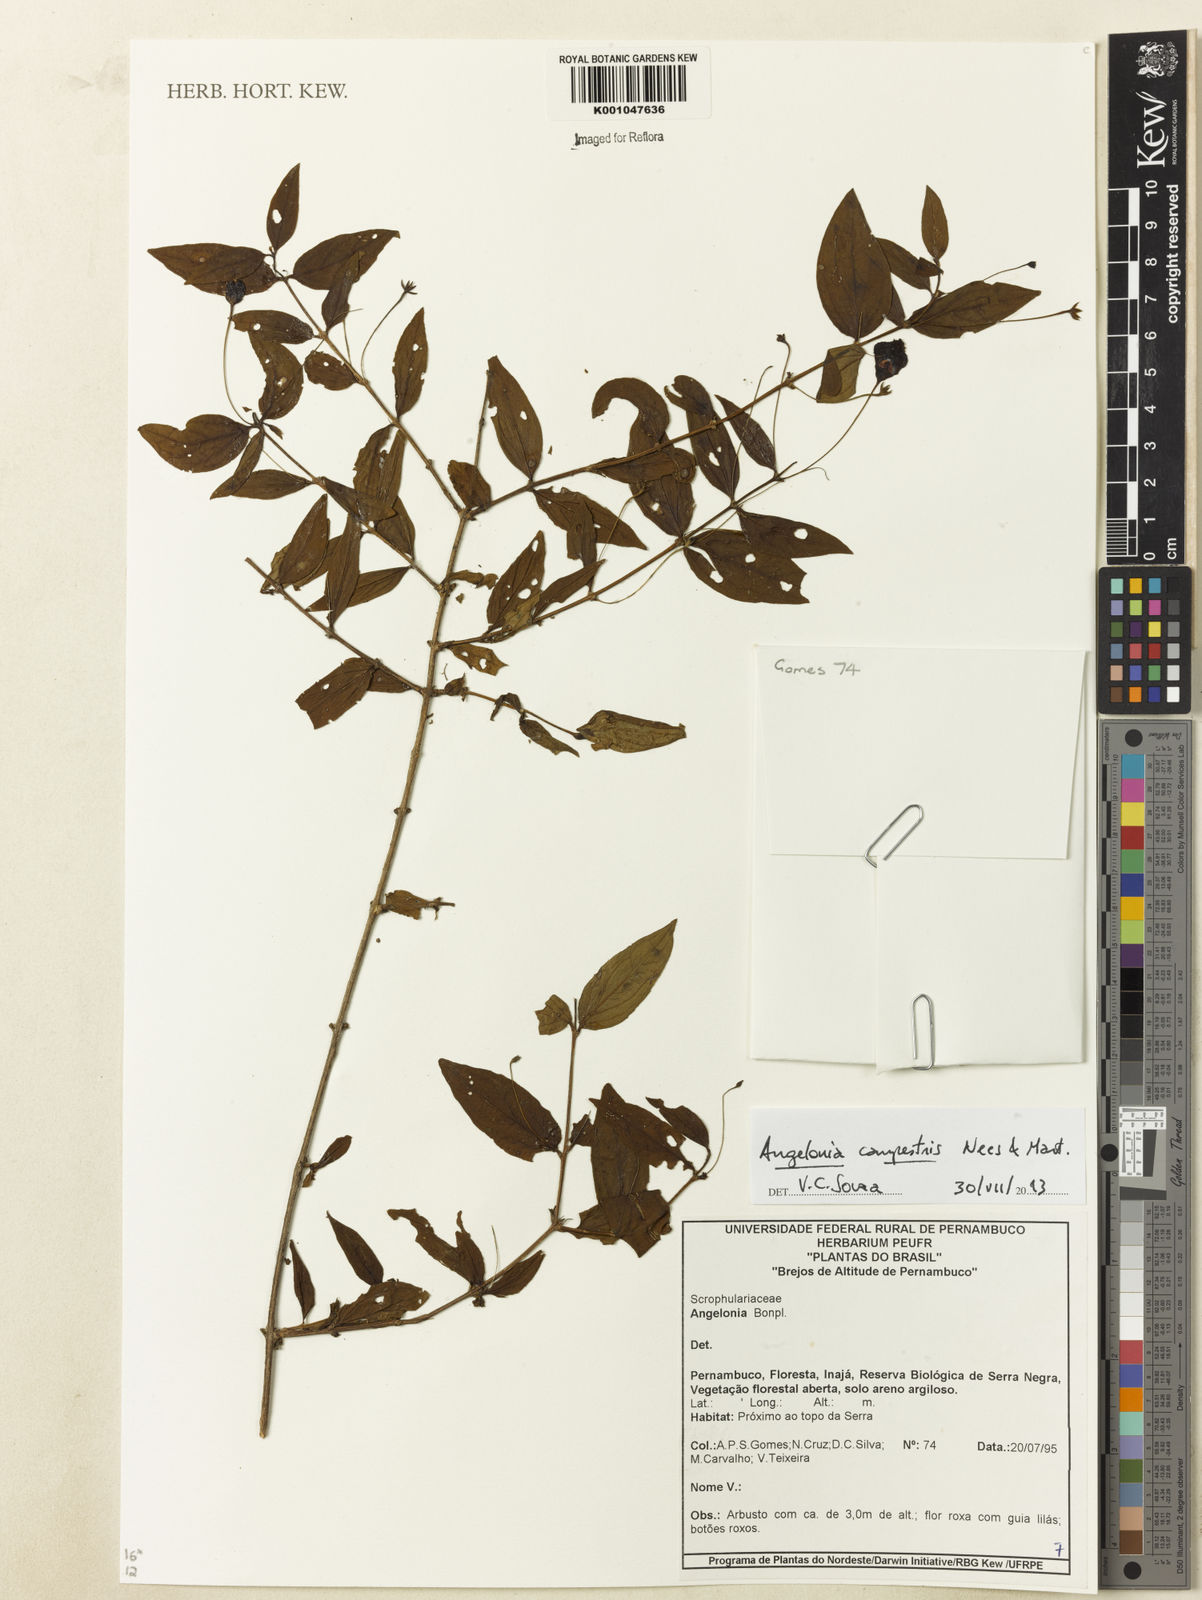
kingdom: Plantae
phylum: Tracheophyta
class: Magnoliopsida
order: Lamiales
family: Plantaginaceae
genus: Angelonia
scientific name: Angelonia campestris
